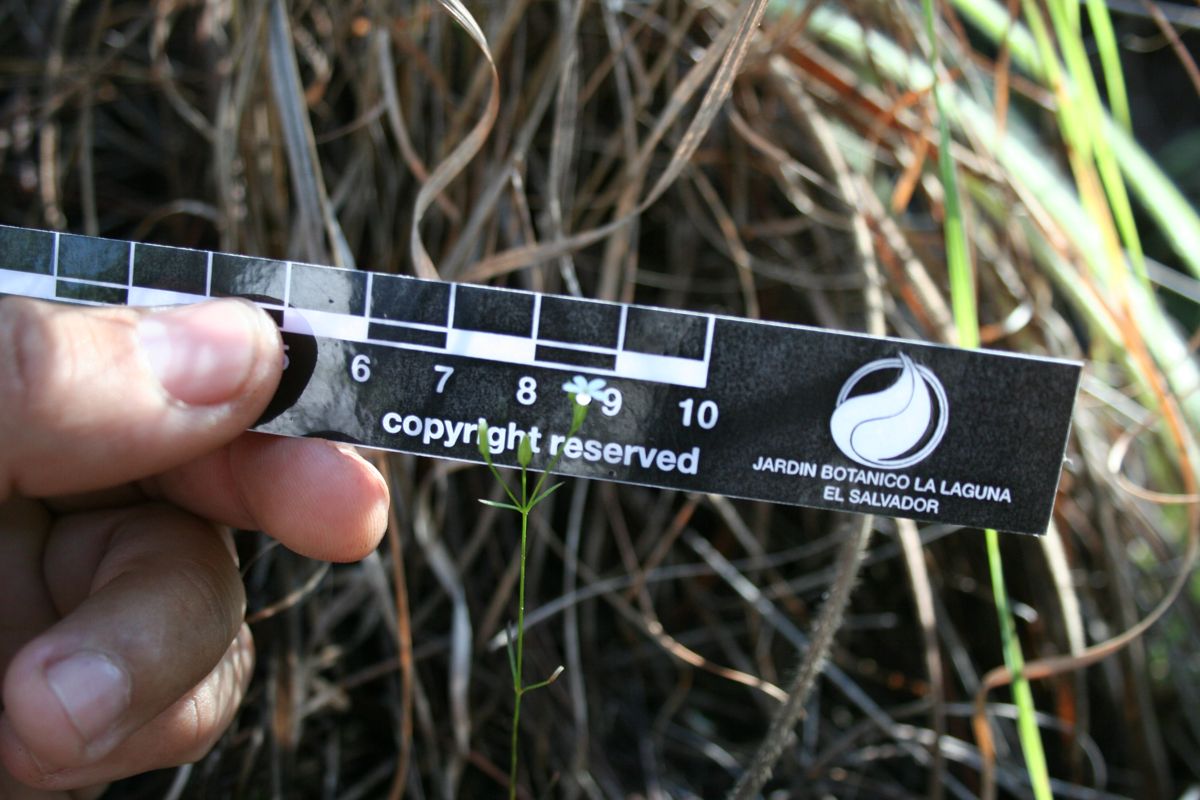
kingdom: Plantae
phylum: Tracheophyta
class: Magnoliopsida
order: Gentianales
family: Gentianaceae
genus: Curtia
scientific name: Curtia tenella
